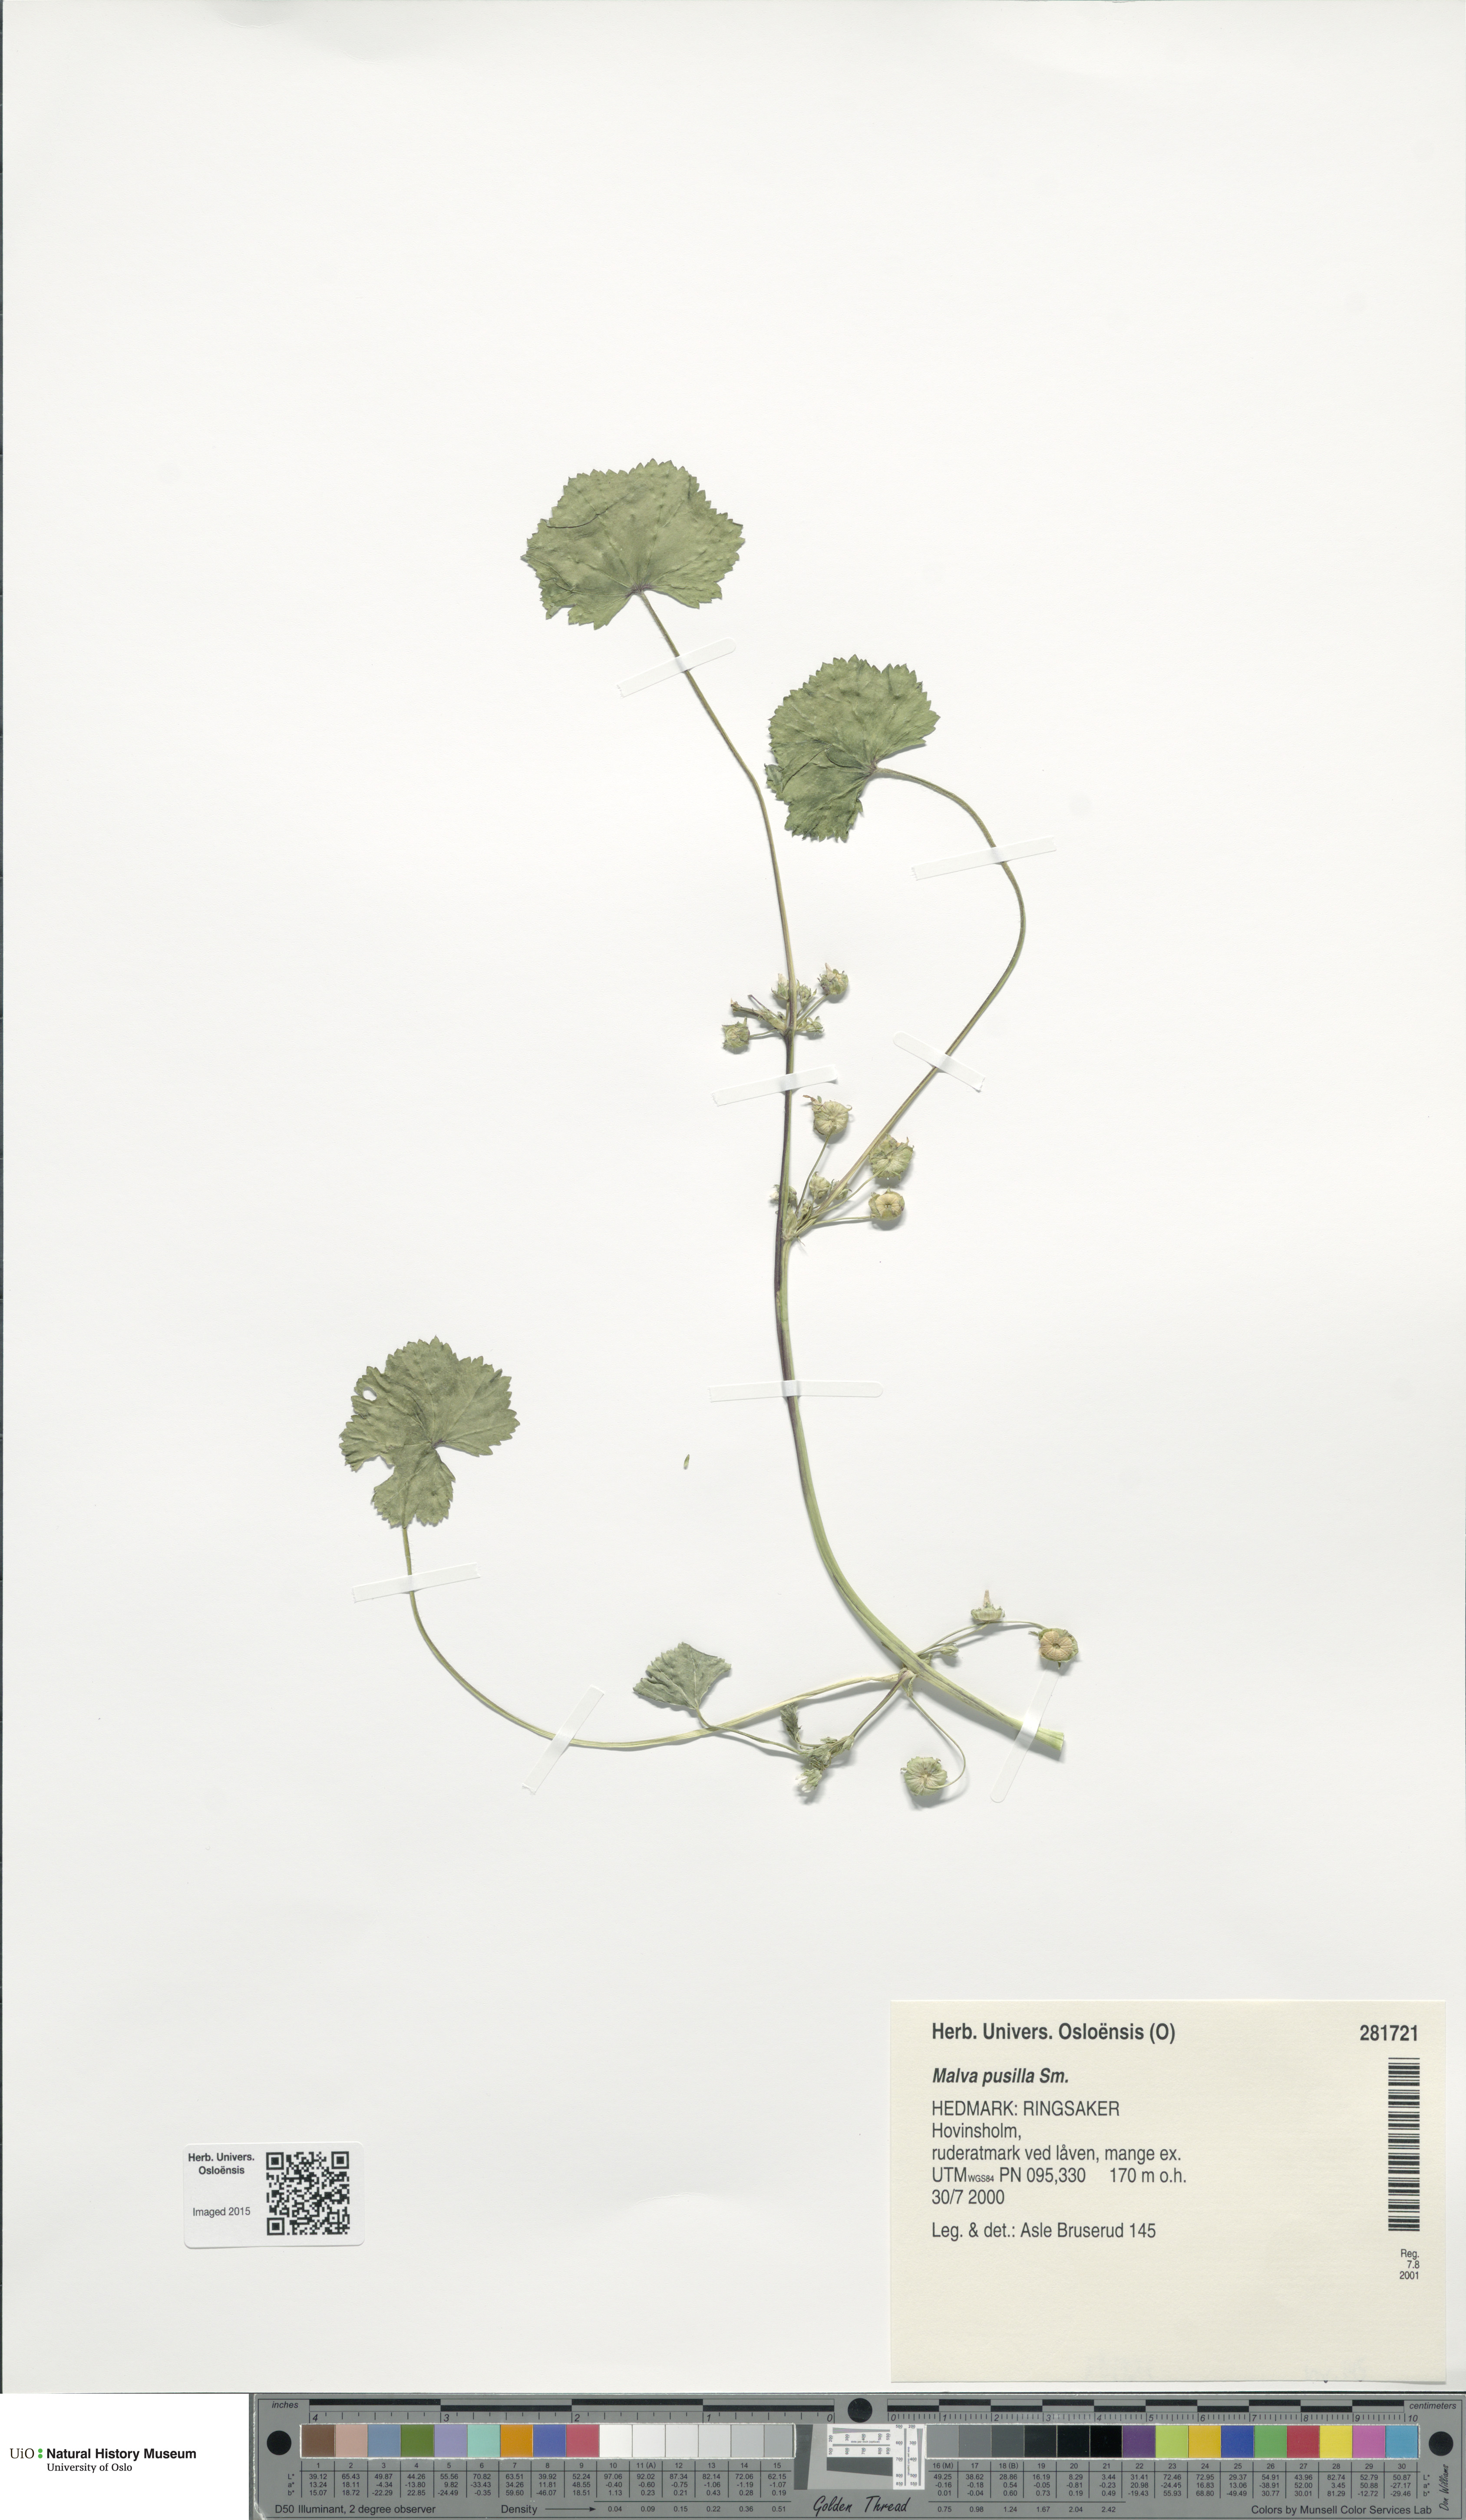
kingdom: Plantae
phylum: Tracheophyta
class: Magnoliopsida
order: Malvales
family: Malvaceae
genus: Malva
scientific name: Malva pusilla
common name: Small mallow
